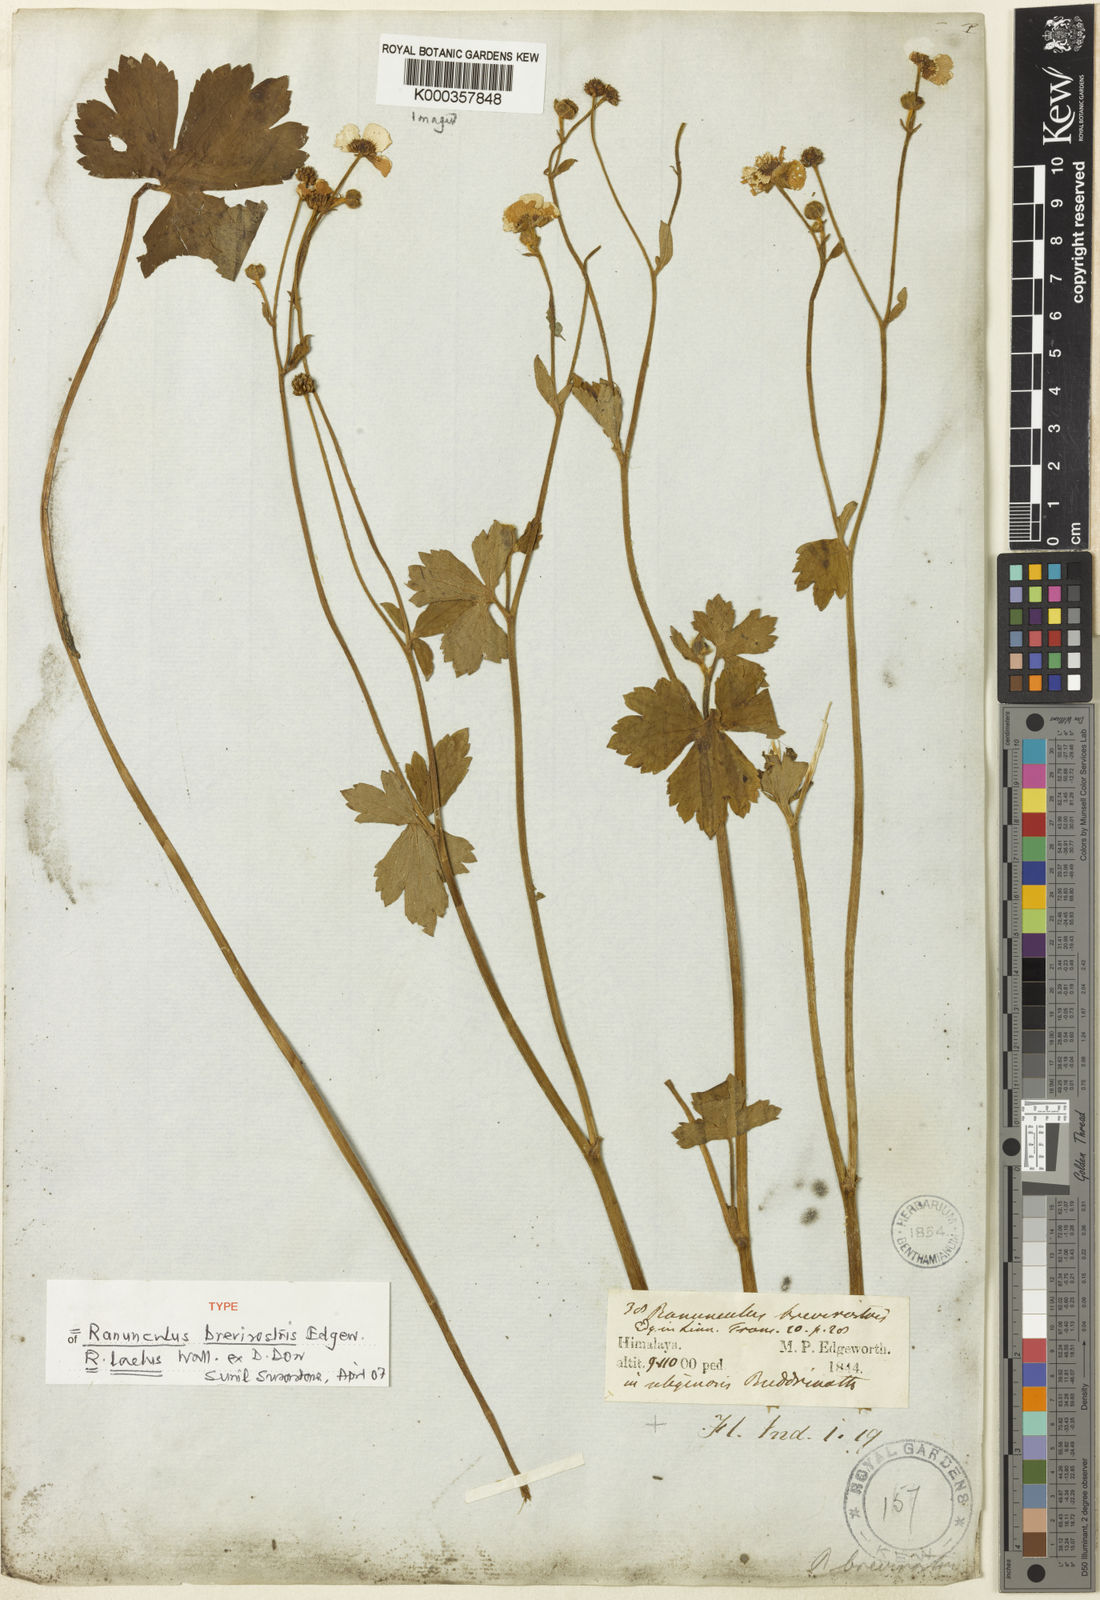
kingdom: Plantae
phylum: Tracheophyta
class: Magnoliopsida
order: Ranunculales
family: Ranunculaceae
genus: Ranunculus
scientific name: Ranunculus
